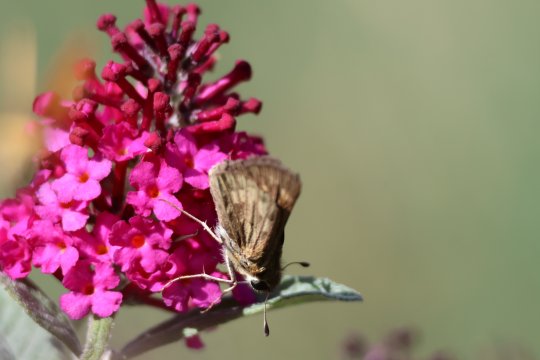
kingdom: Animalia
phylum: Arthropoda
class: Insecta
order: Lepidoptera
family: Hesperiidae
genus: Hylephila
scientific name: Hylephila phyleus
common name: Fiery Skipper
